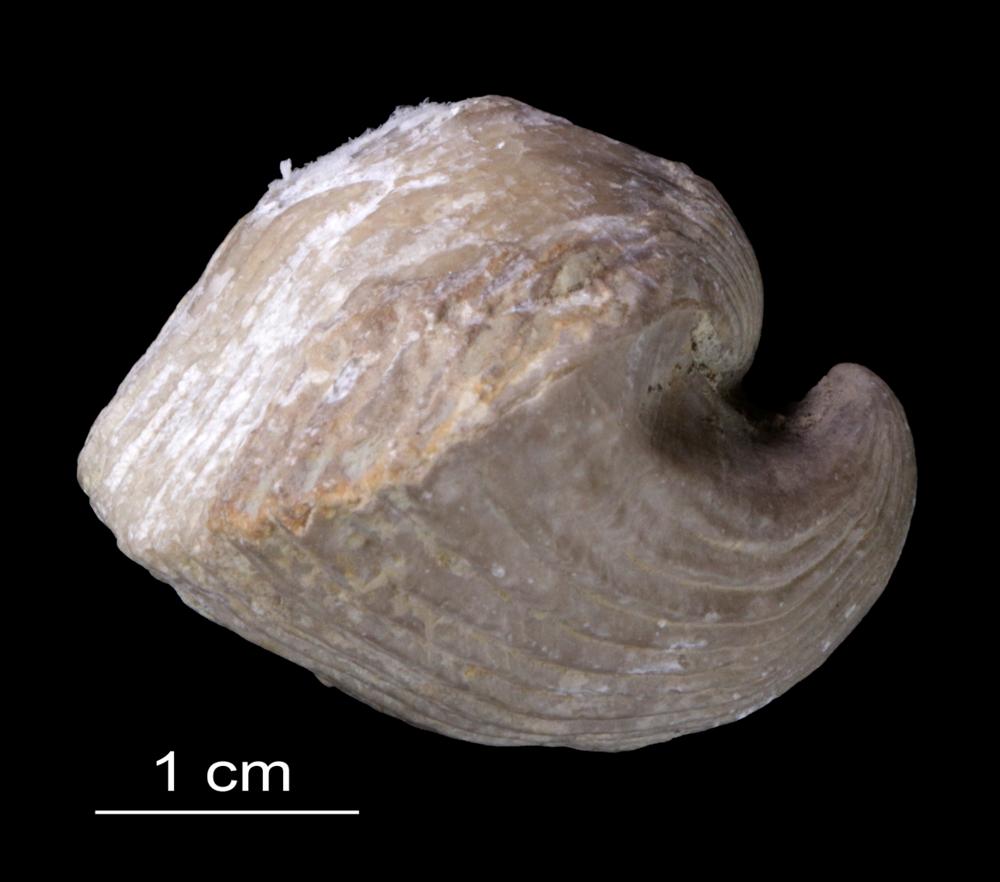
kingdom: Animalia
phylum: Brachiopoda
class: Rhynchonellata
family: Pentameridae
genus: Pentamerus
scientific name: Pentamerus
